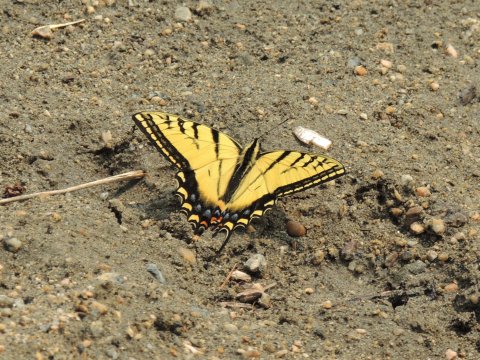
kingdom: Animalia
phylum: Arthropoda
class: Insecta
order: Lepidoptera
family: Papilionidae
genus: Papilio
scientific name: Papilio multicaudata
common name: Two-tailed Swallowtail
